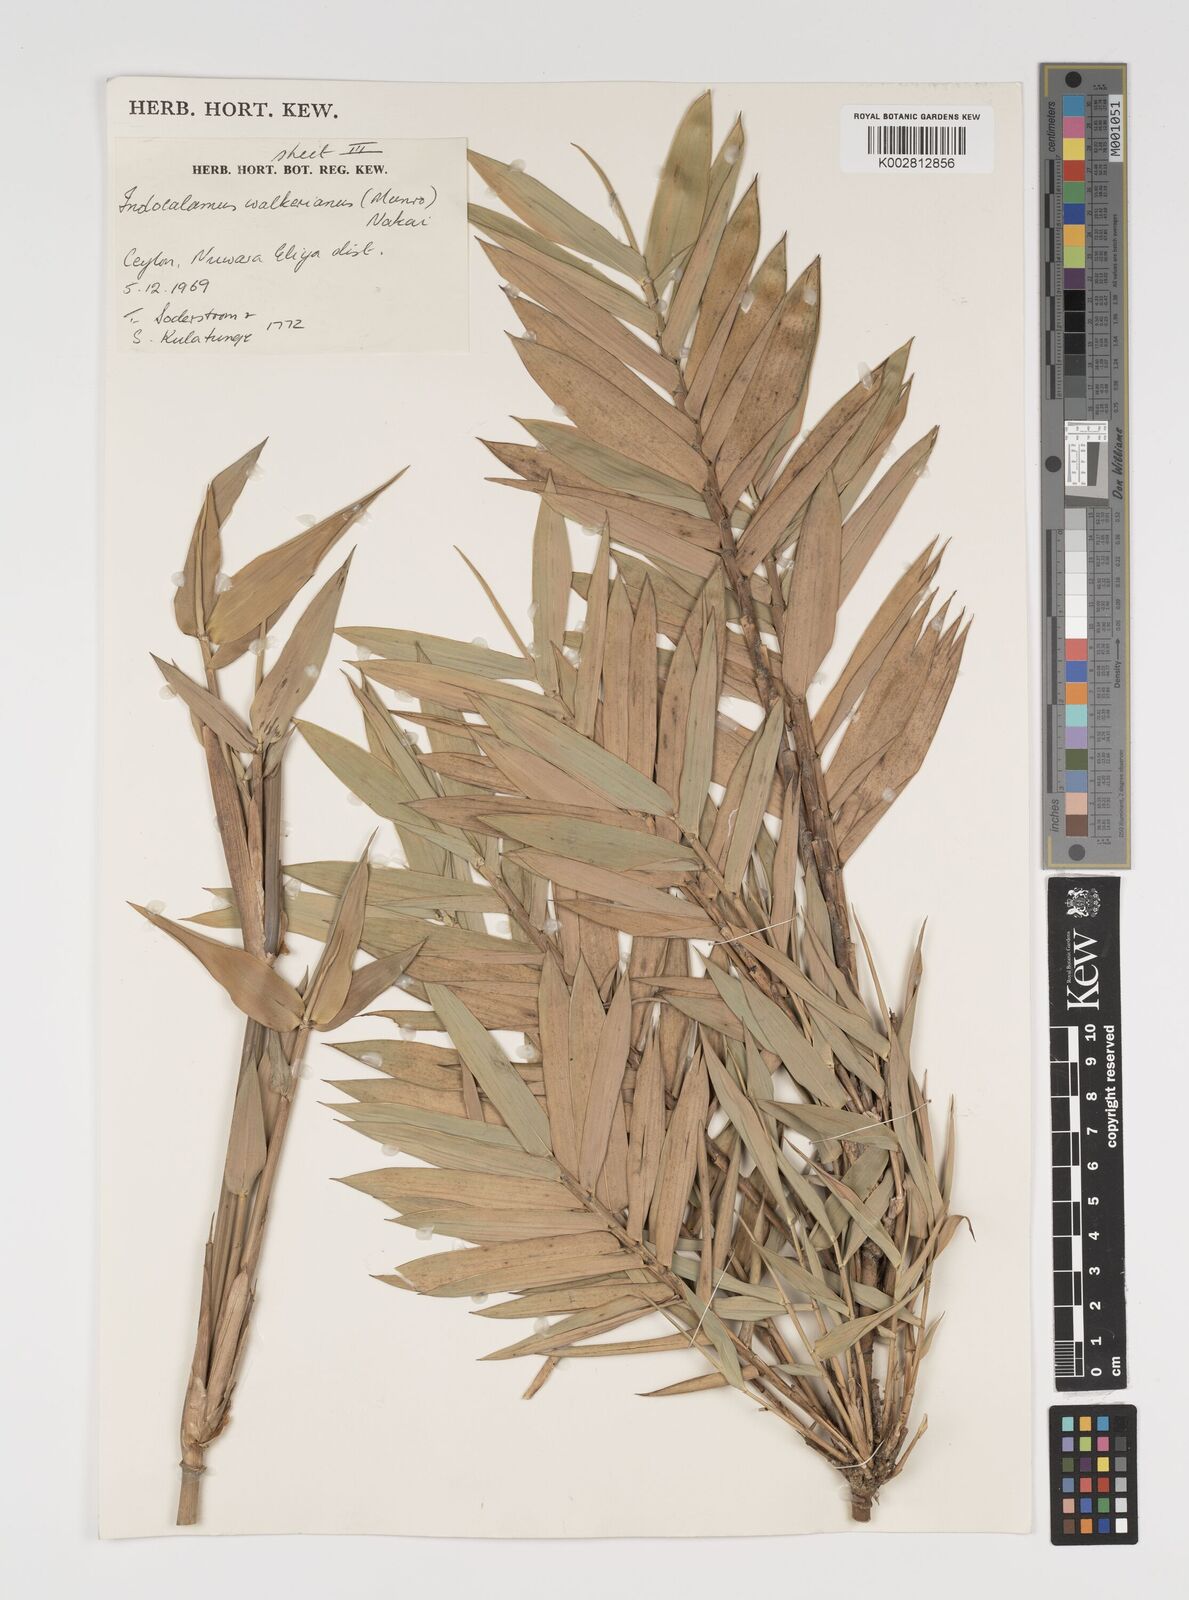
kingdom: Plantae
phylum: Tracheophyta
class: Liliopsida
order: Poales
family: Poaceae
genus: Kuruna
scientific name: Kuruna walkeriana
